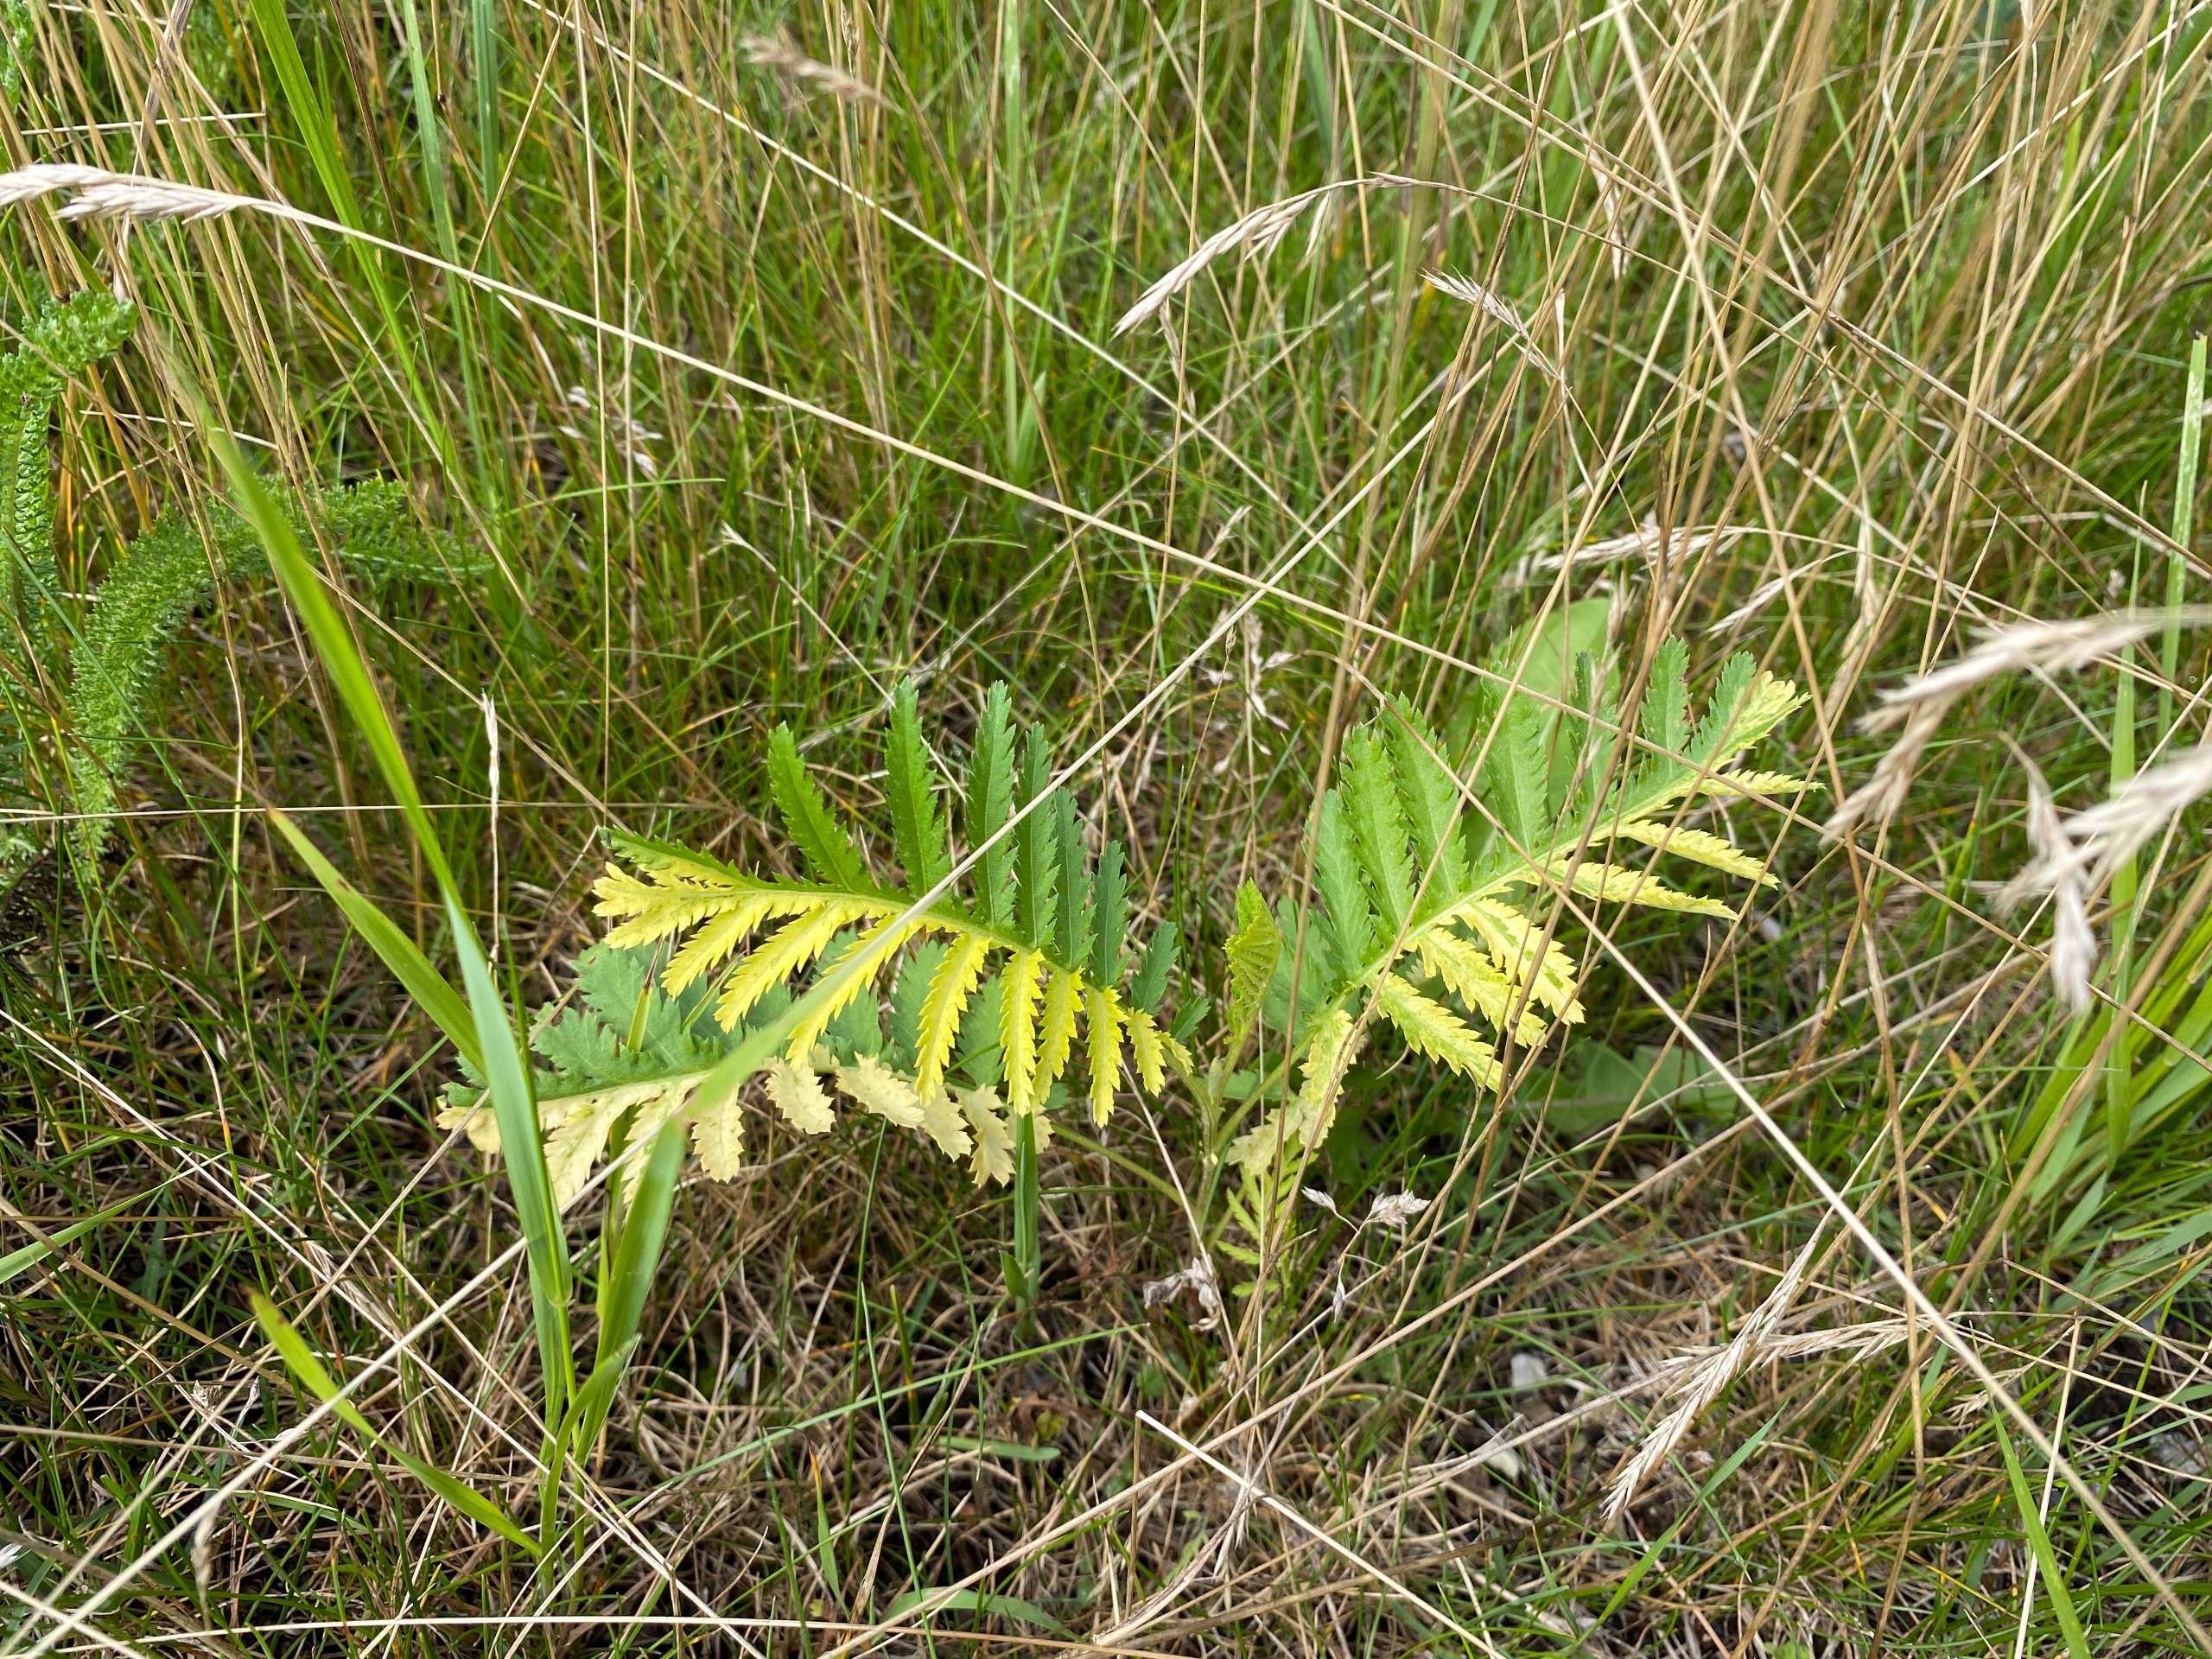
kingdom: Plantae
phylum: Tracheophyta
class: Magnoliopsida
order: Asterales
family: Asteraceae
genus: Tanacetum
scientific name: Tanacetum vulgare
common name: Rejnfan
